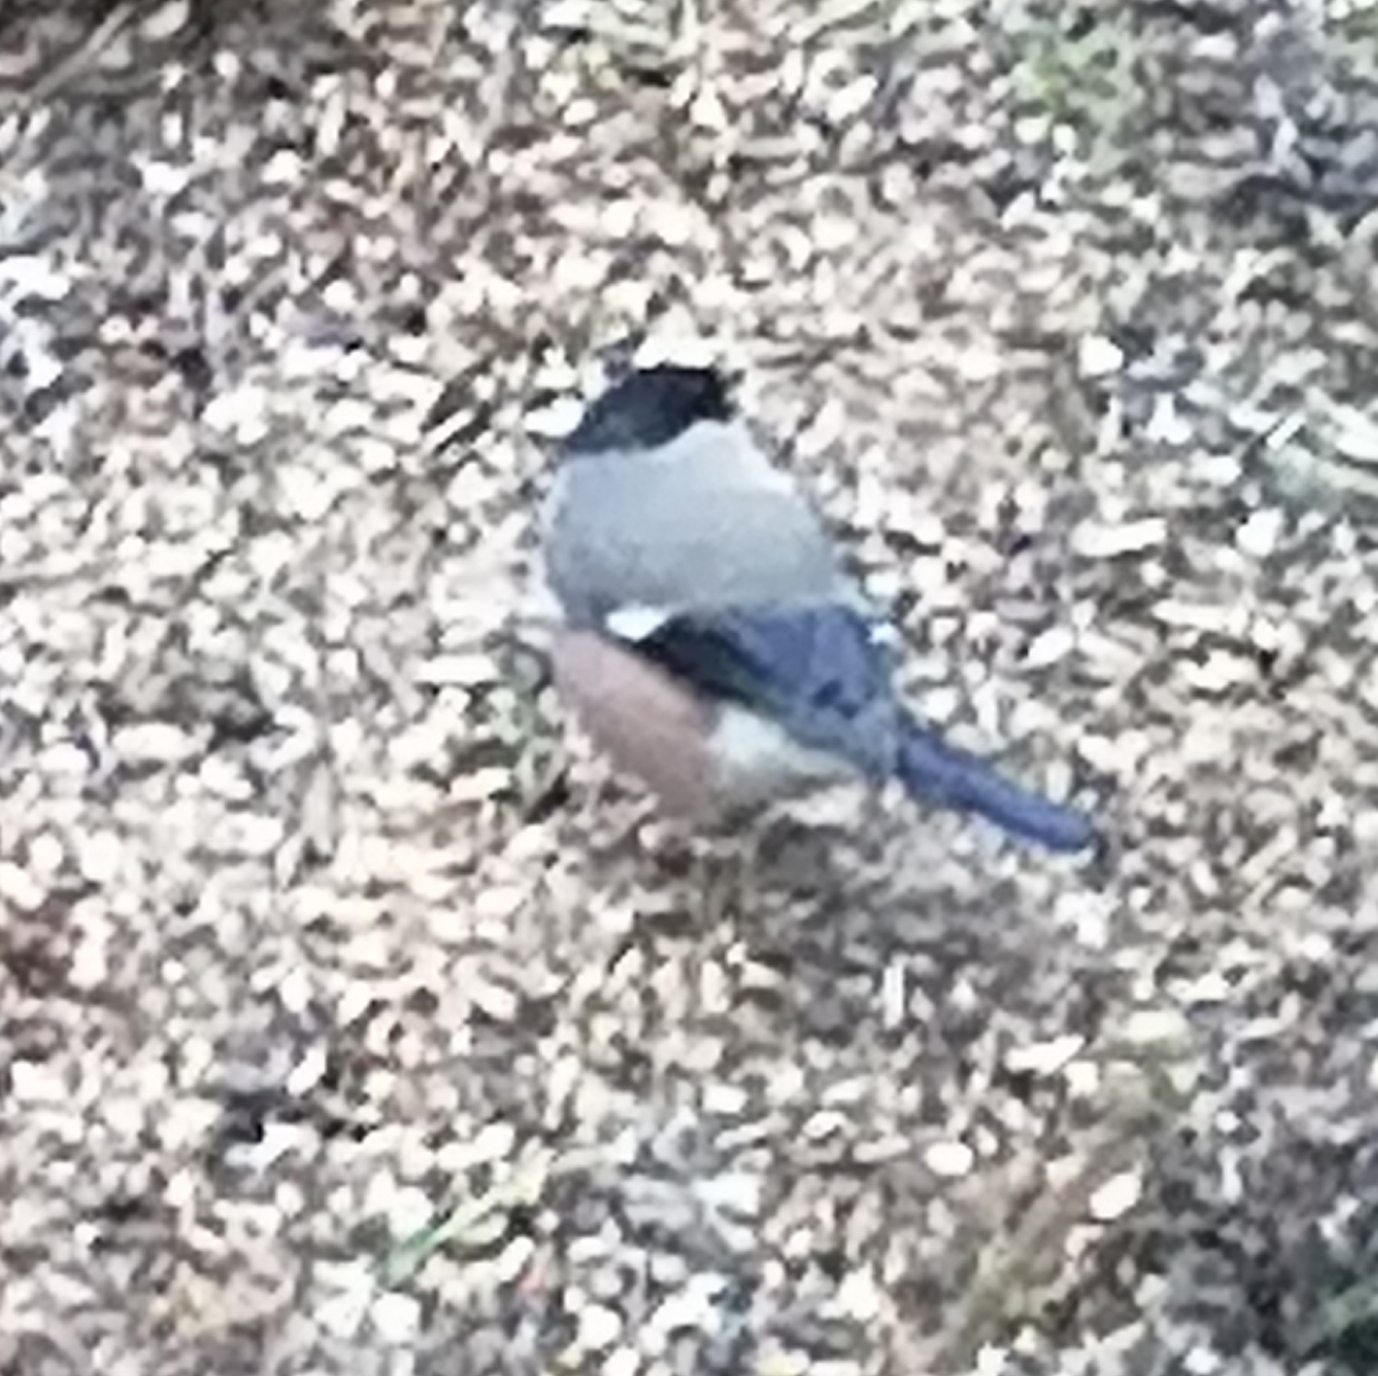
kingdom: Animalia
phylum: Chordata
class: Aves
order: Passeriformes
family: Fringillidae
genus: Pyrrhula
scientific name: Pyrrhula pyrrhula
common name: Dompap
